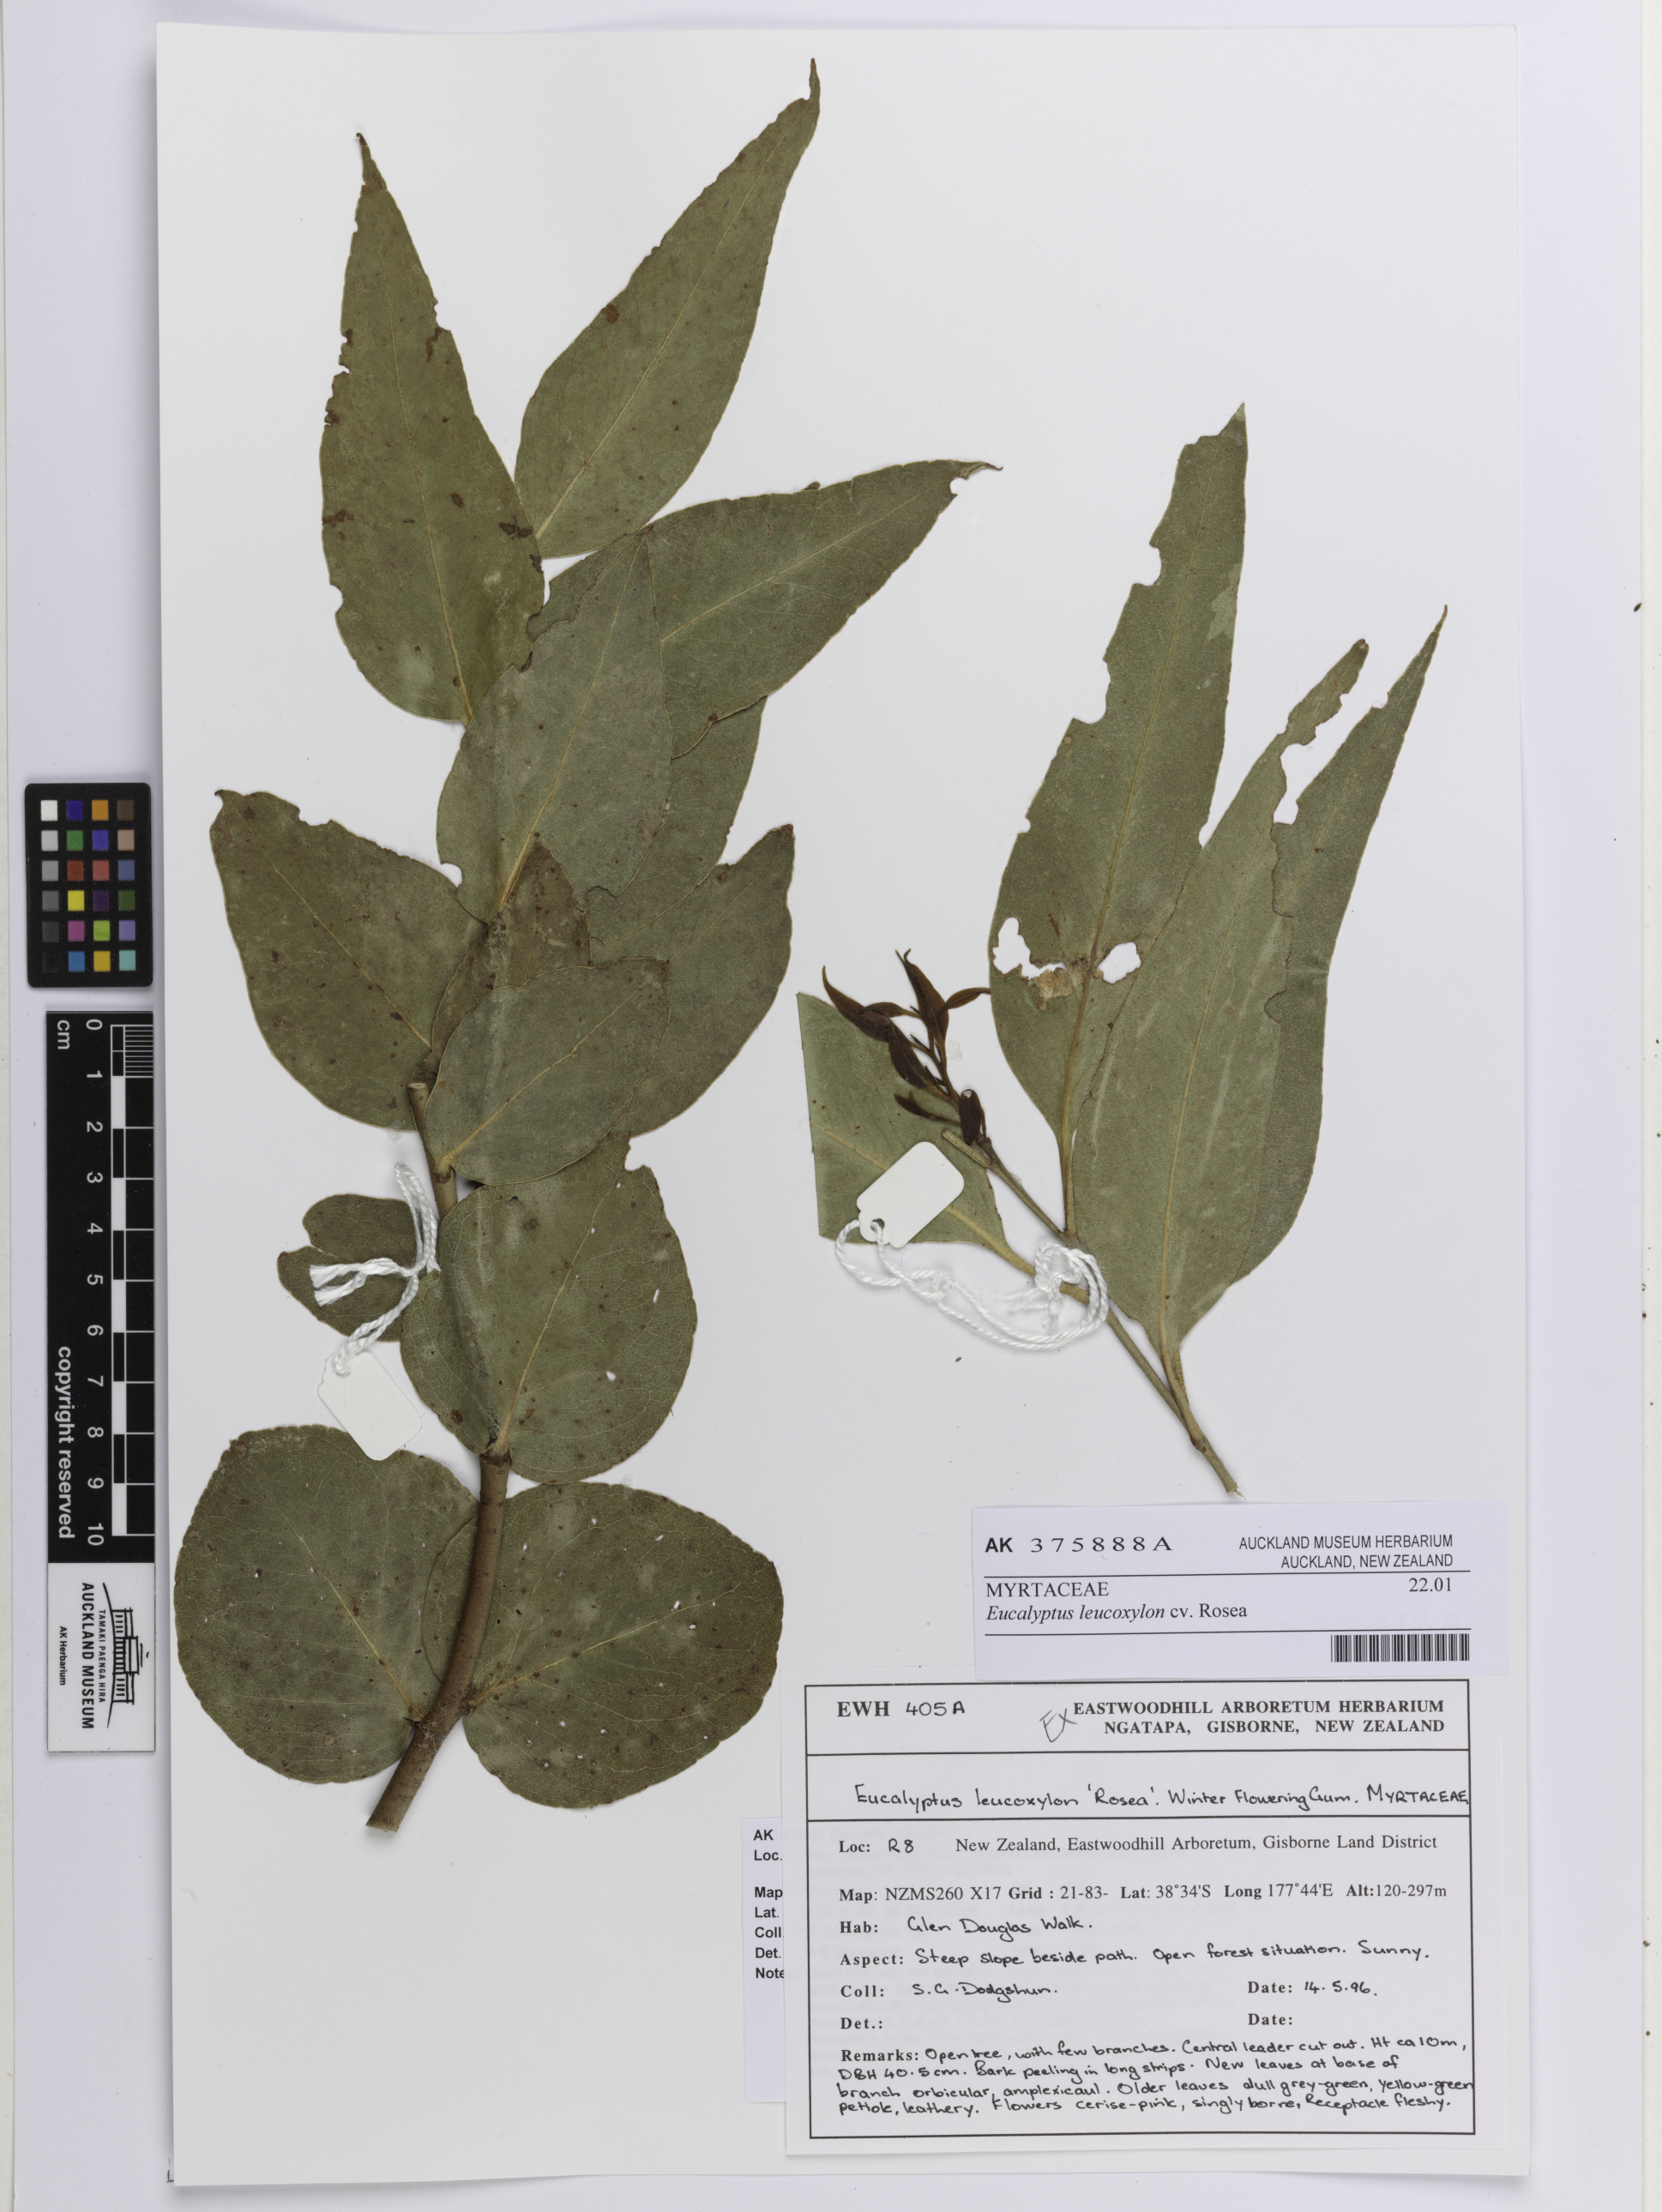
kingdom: Plantae
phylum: Tracheophyta
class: Magnoliopsida
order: Myrtales
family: Myrtaceae
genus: Eucalyptus
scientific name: Eucalyptus leucoxylon
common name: Blue gum
